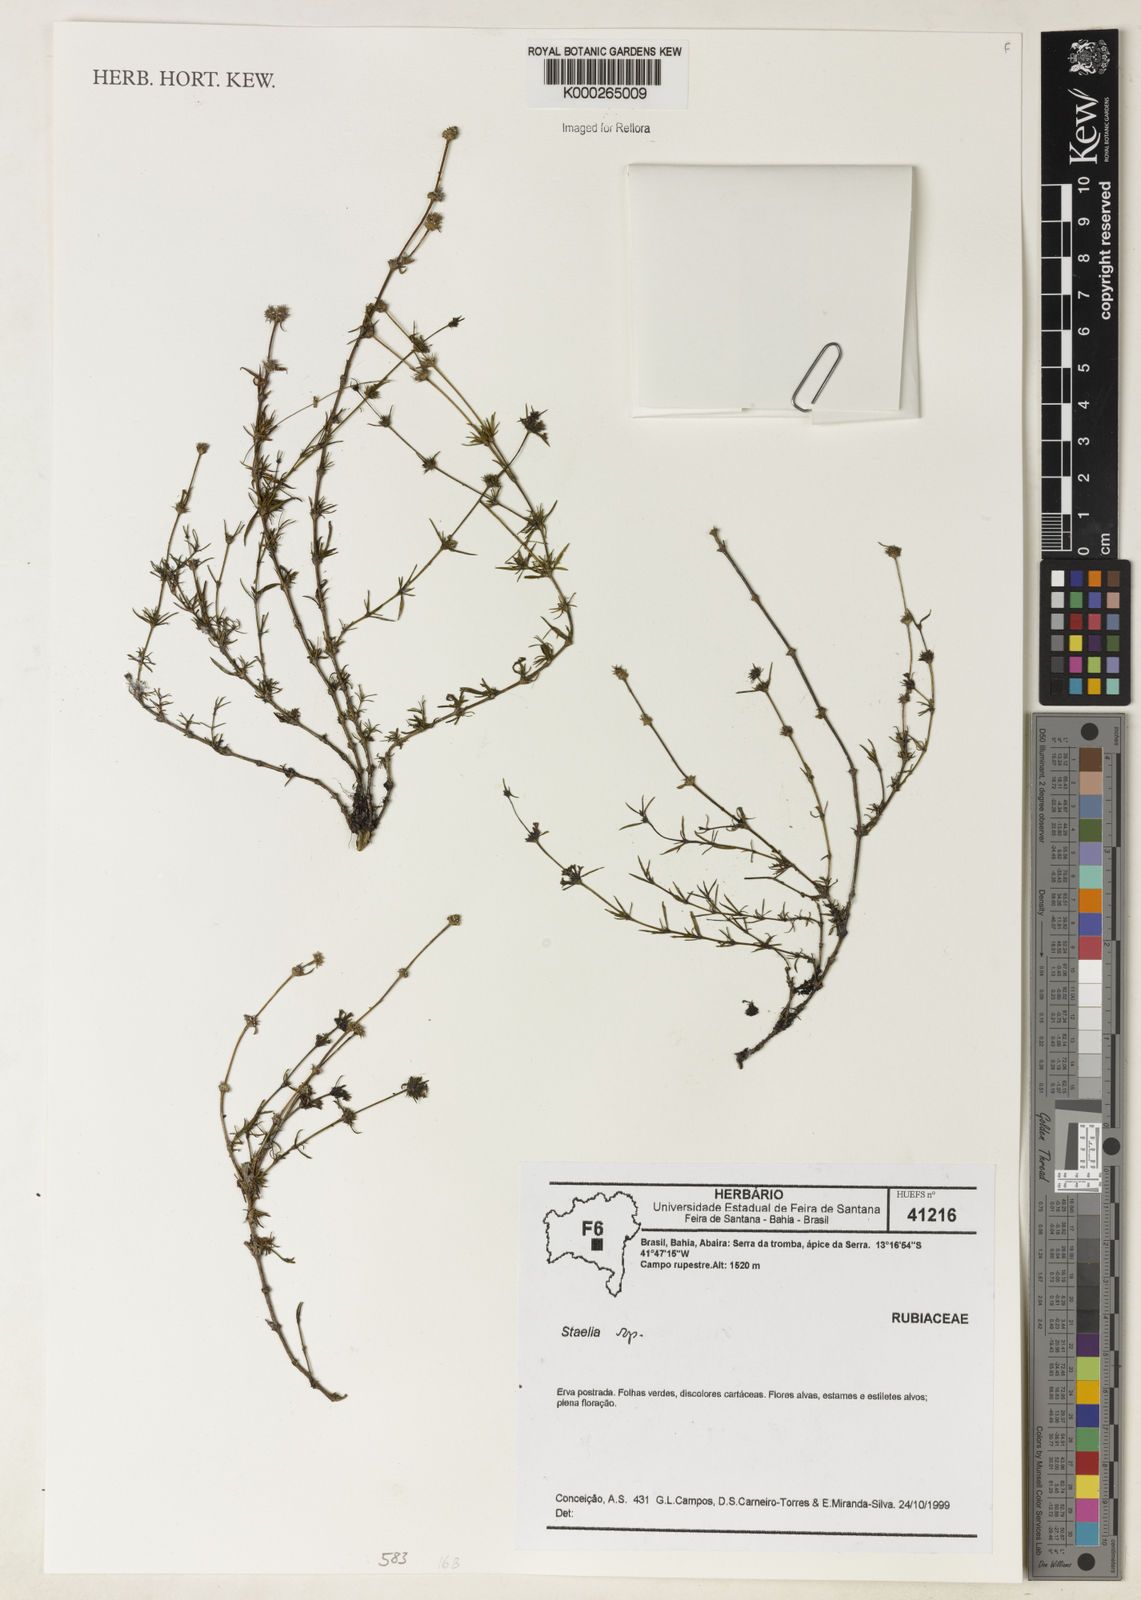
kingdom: Plantae
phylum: Tracheophyta
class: Magnoliopsida
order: Gentianales
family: Rubiaceae
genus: Staelia
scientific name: Staelia
